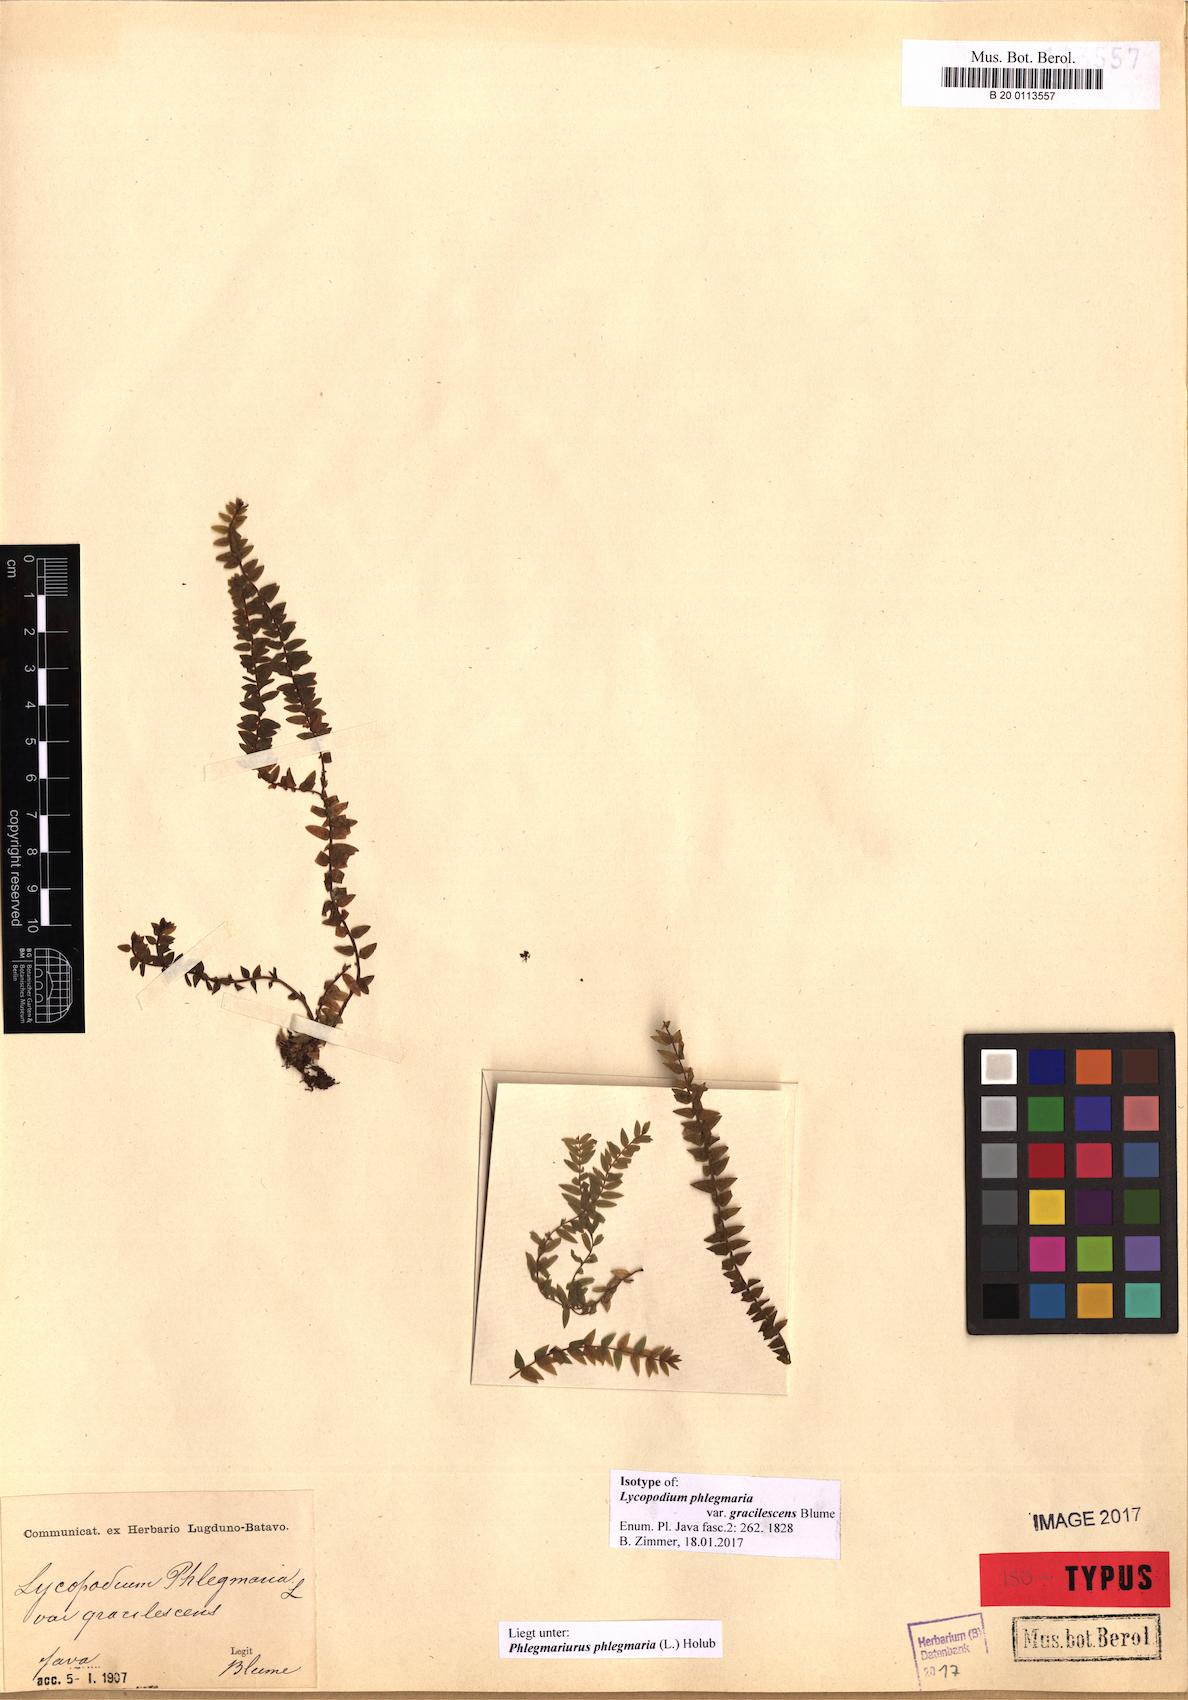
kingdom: Plantae
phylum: Tracheophyta
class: Lycopodiopsida
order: Lycopodiales
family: Lycopodiaceae
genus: Phlegmariurus
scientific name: Phlegmariurus phlegmaria
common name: Coarse tassel-fern
